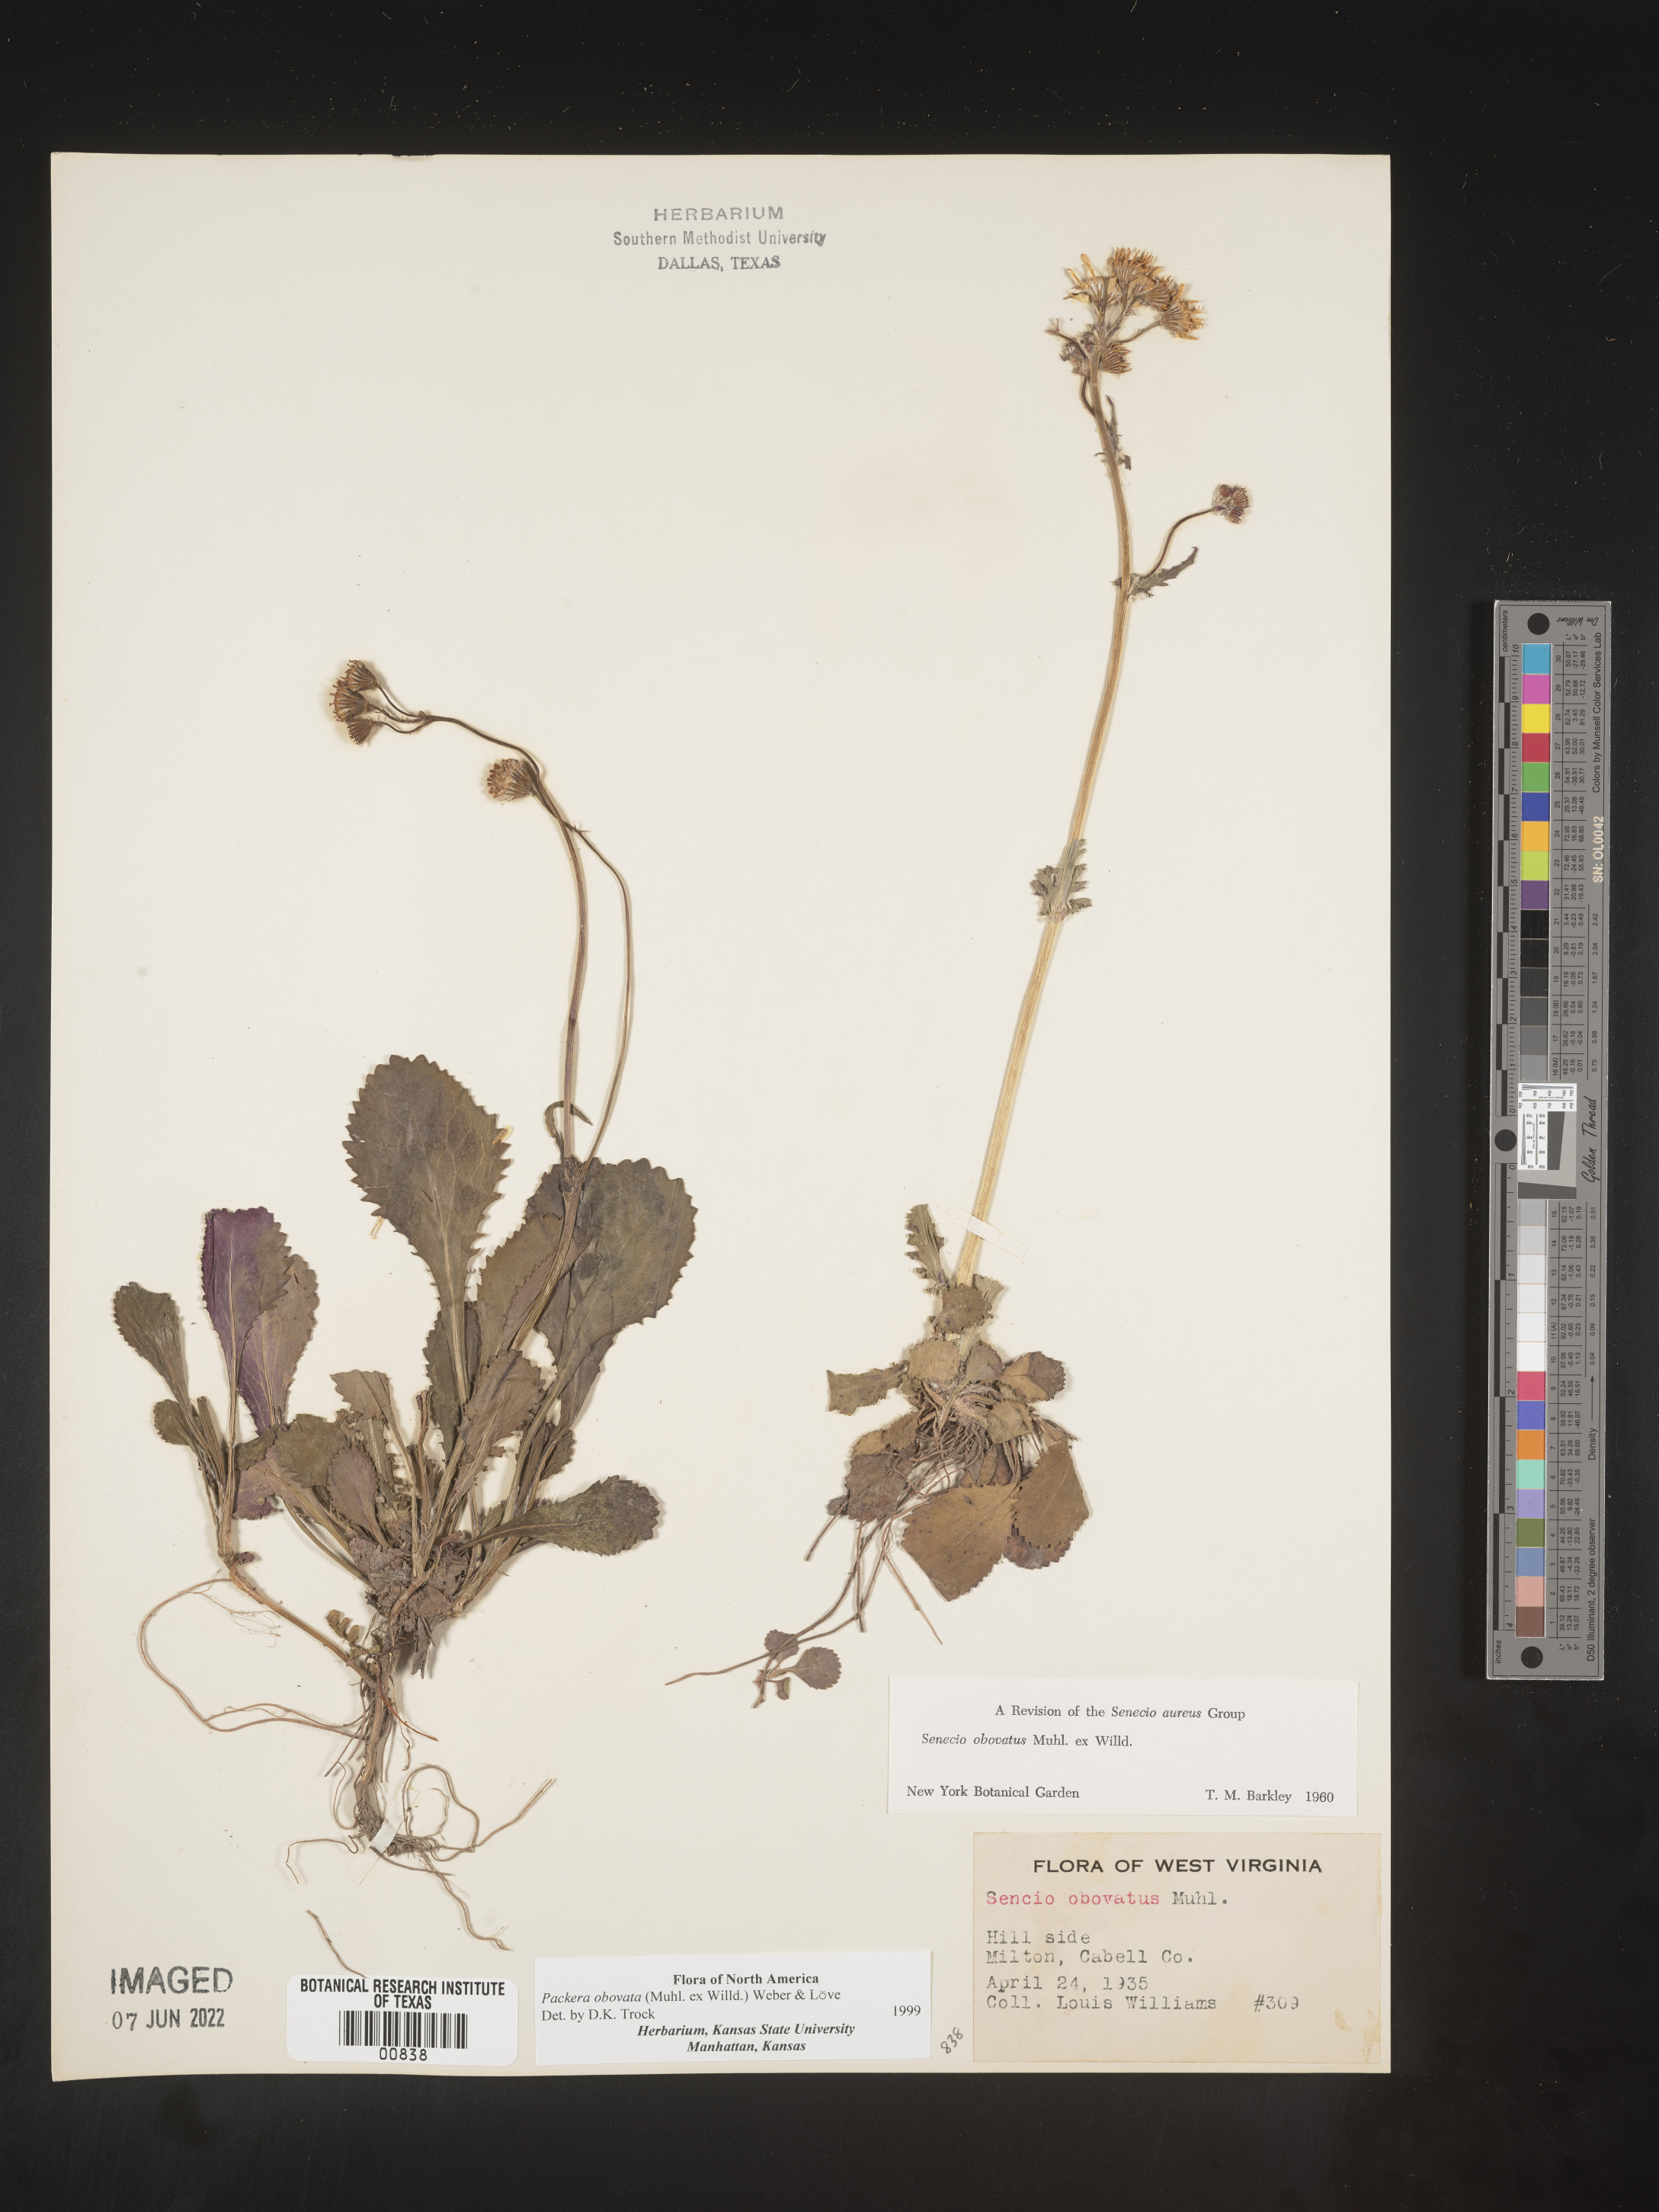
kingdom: Plantae
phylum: Tracheophyta
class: Magnoliopsida
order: Asterales
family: Asteraceae
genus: Packera
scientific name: Packera obovata
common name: Round-leaf ragwort
